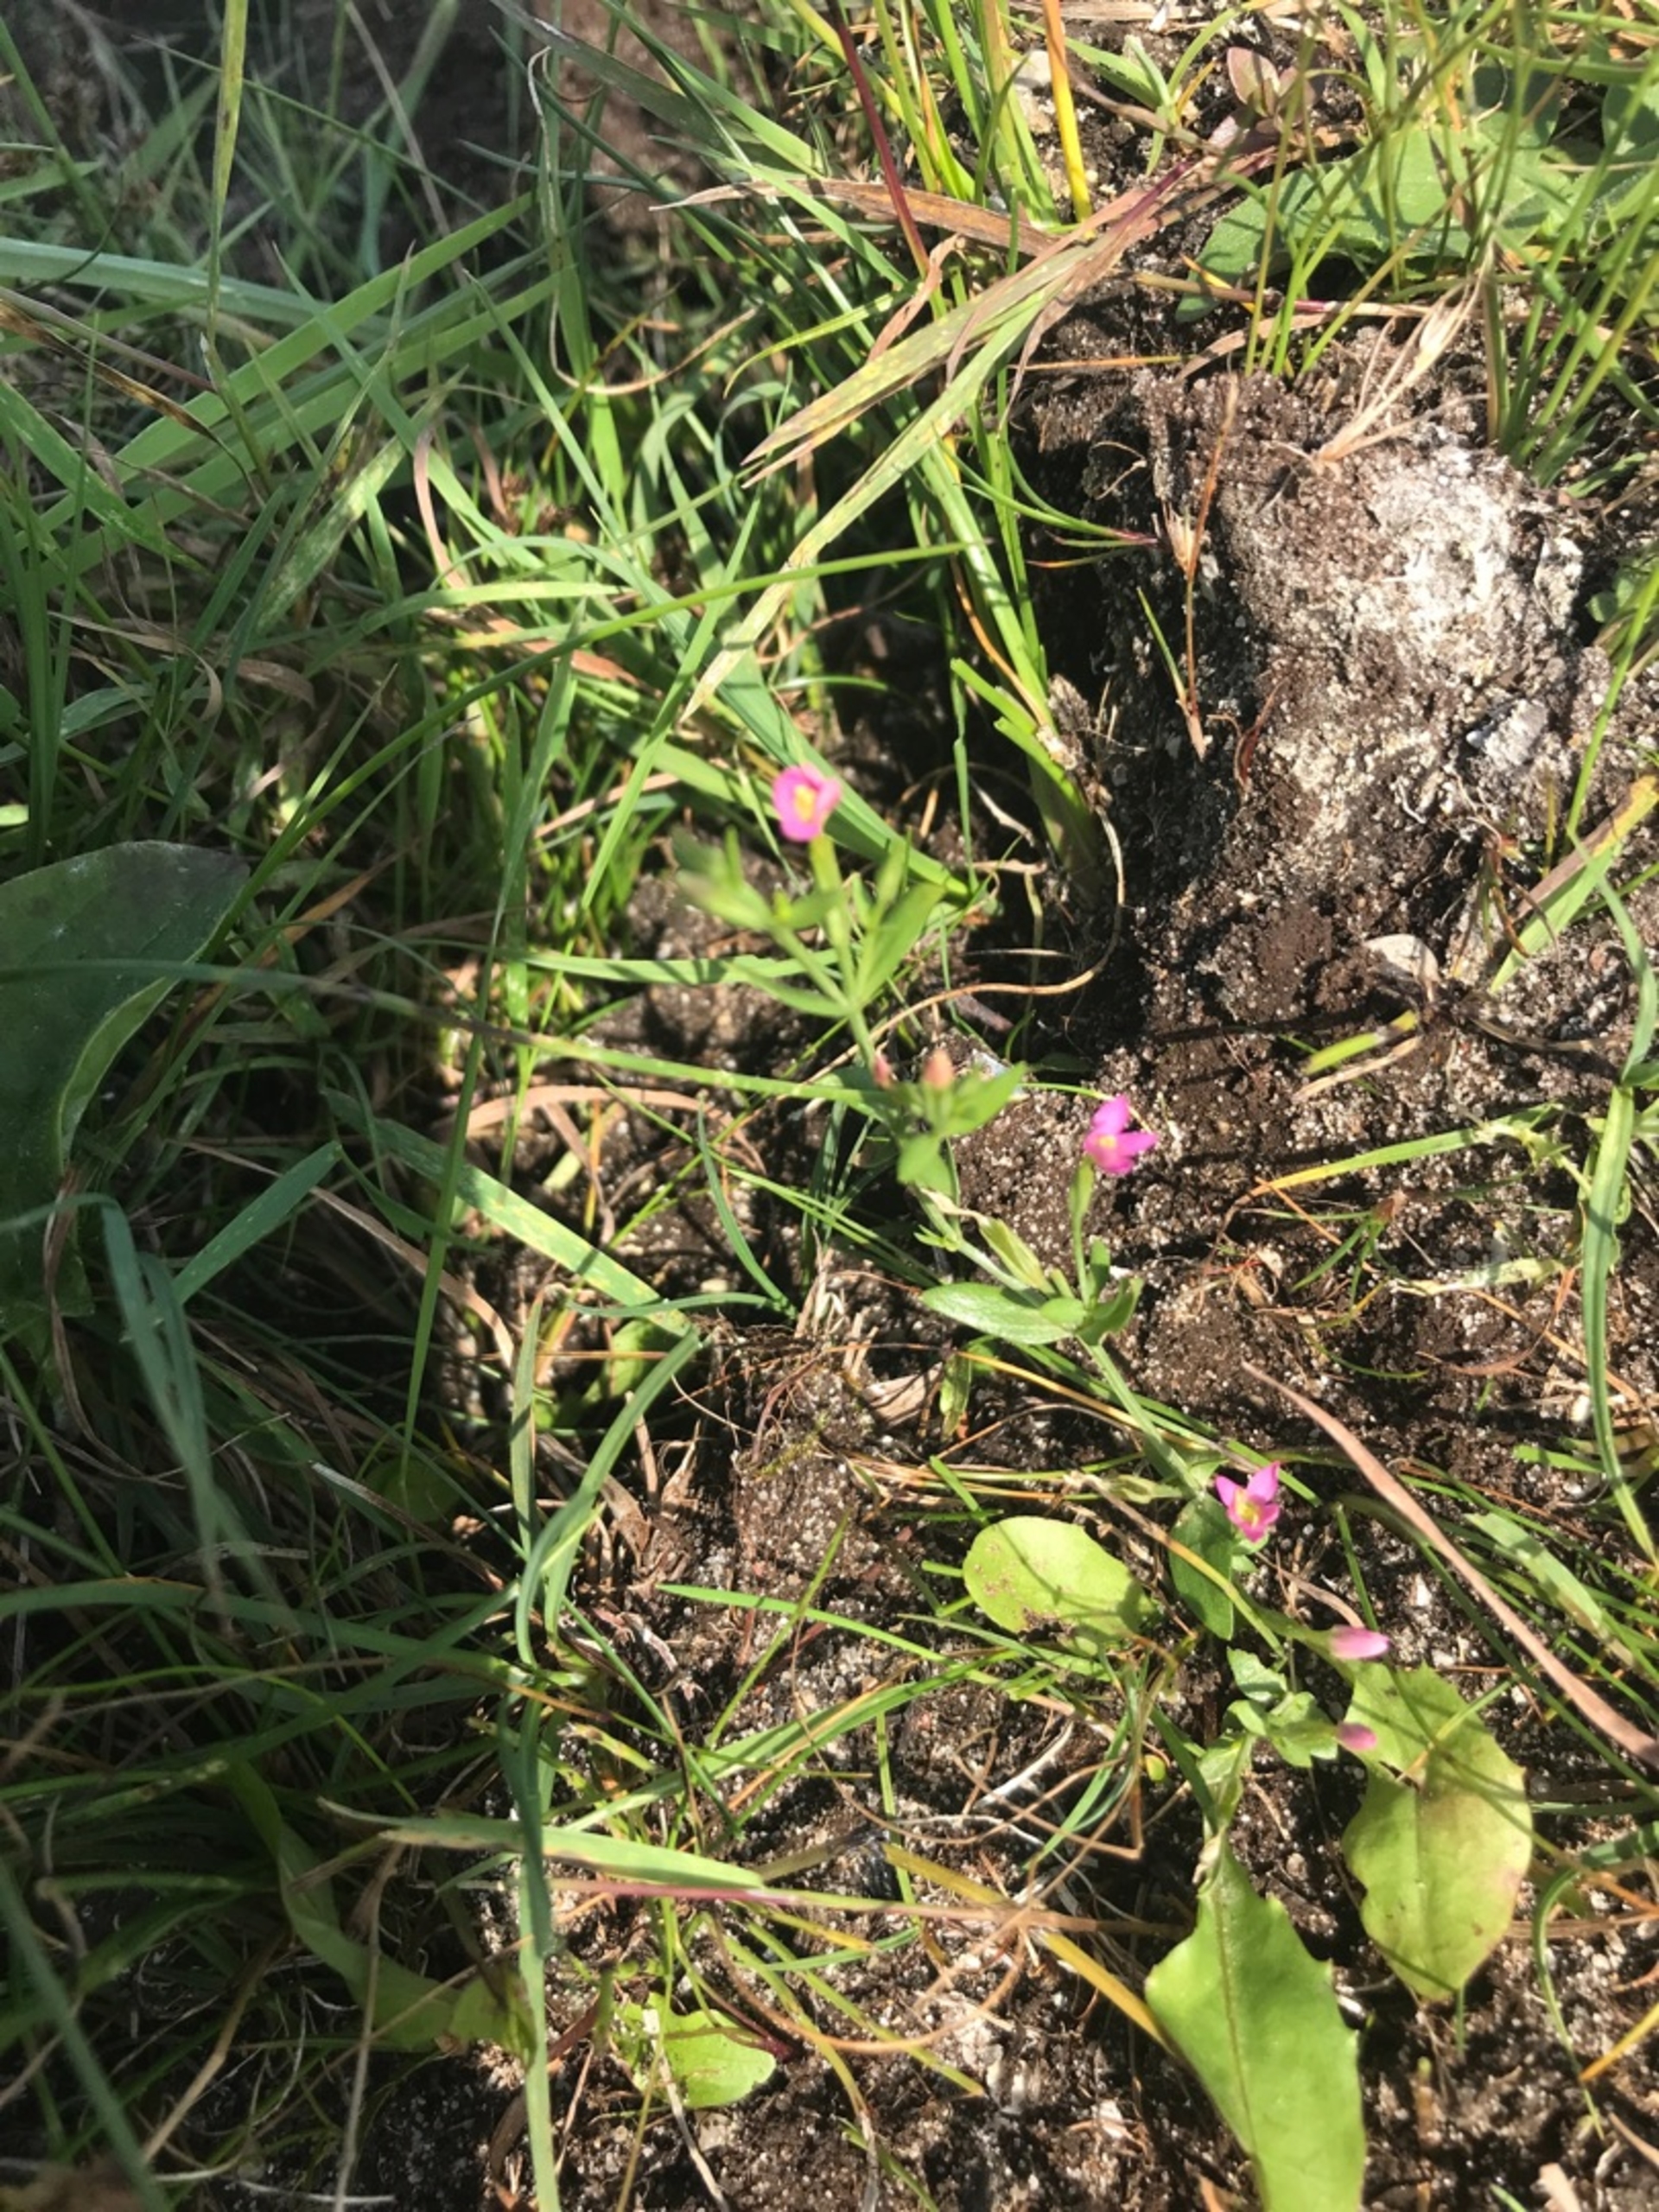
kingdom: Plantae
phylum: Tracheophyta
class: Magnoliopsida
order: Gentianales
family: Gentianaceae
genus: Centaurium
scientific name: Centaurium pulchellum
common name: Liden tusindgylden
